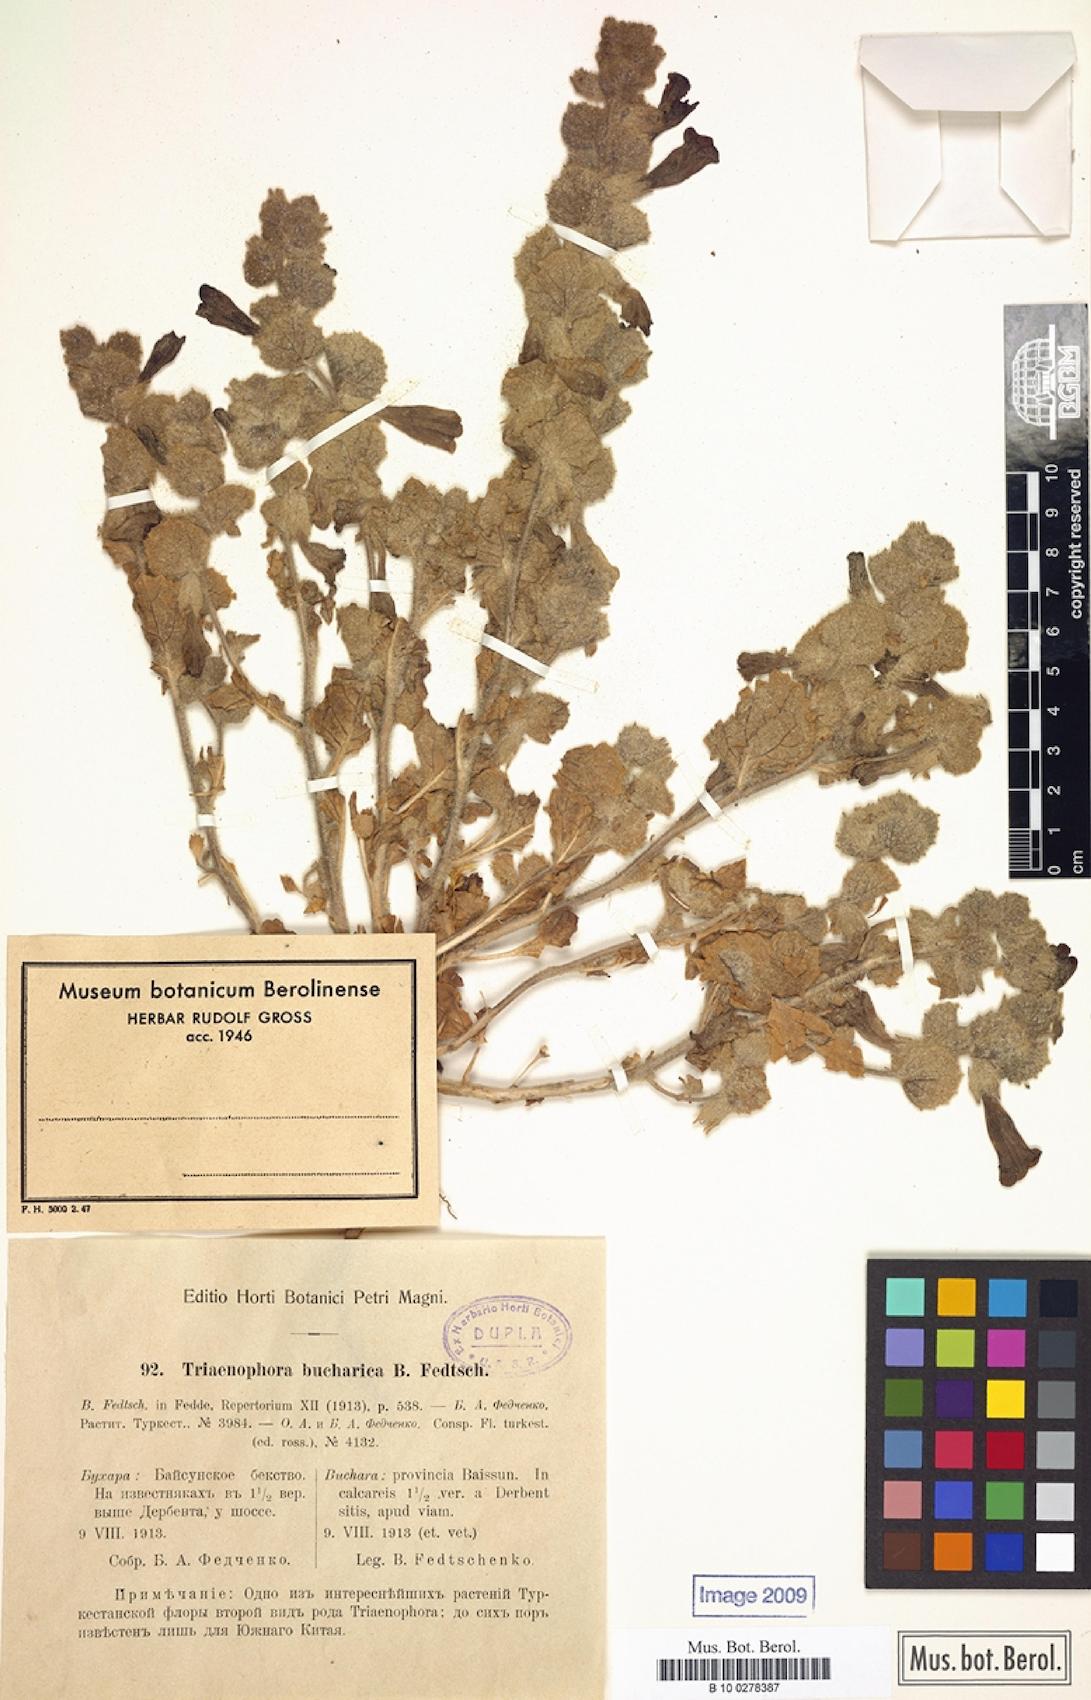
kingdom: Plantae
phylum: Tracheophyta
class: Magnoliopsida
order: Lamiales
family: Rehmanniaceae
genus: Triaenophora
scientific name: Triaenophora bucharica
